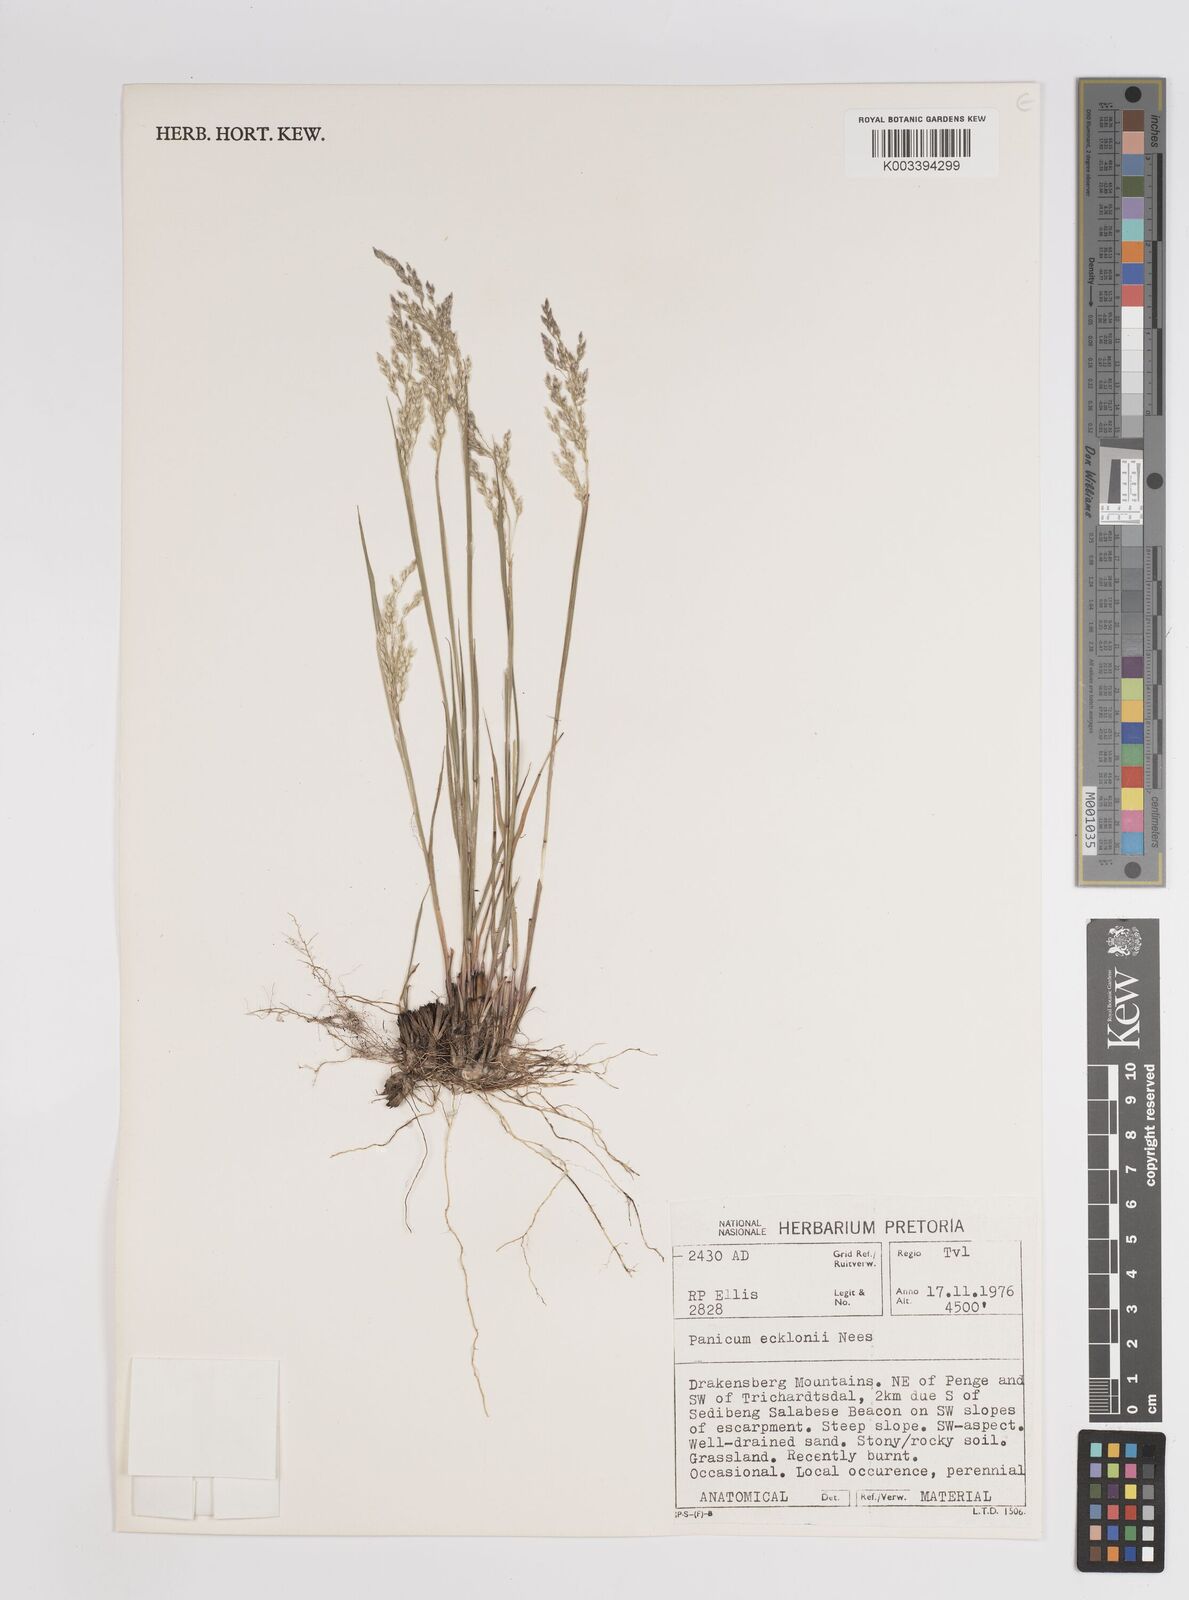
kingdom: Plantae
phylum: Tracheophyta
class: Liliopsida
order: Poales
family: Poaceae
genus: Adenochloa
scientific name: Adenochloa ecklonii
